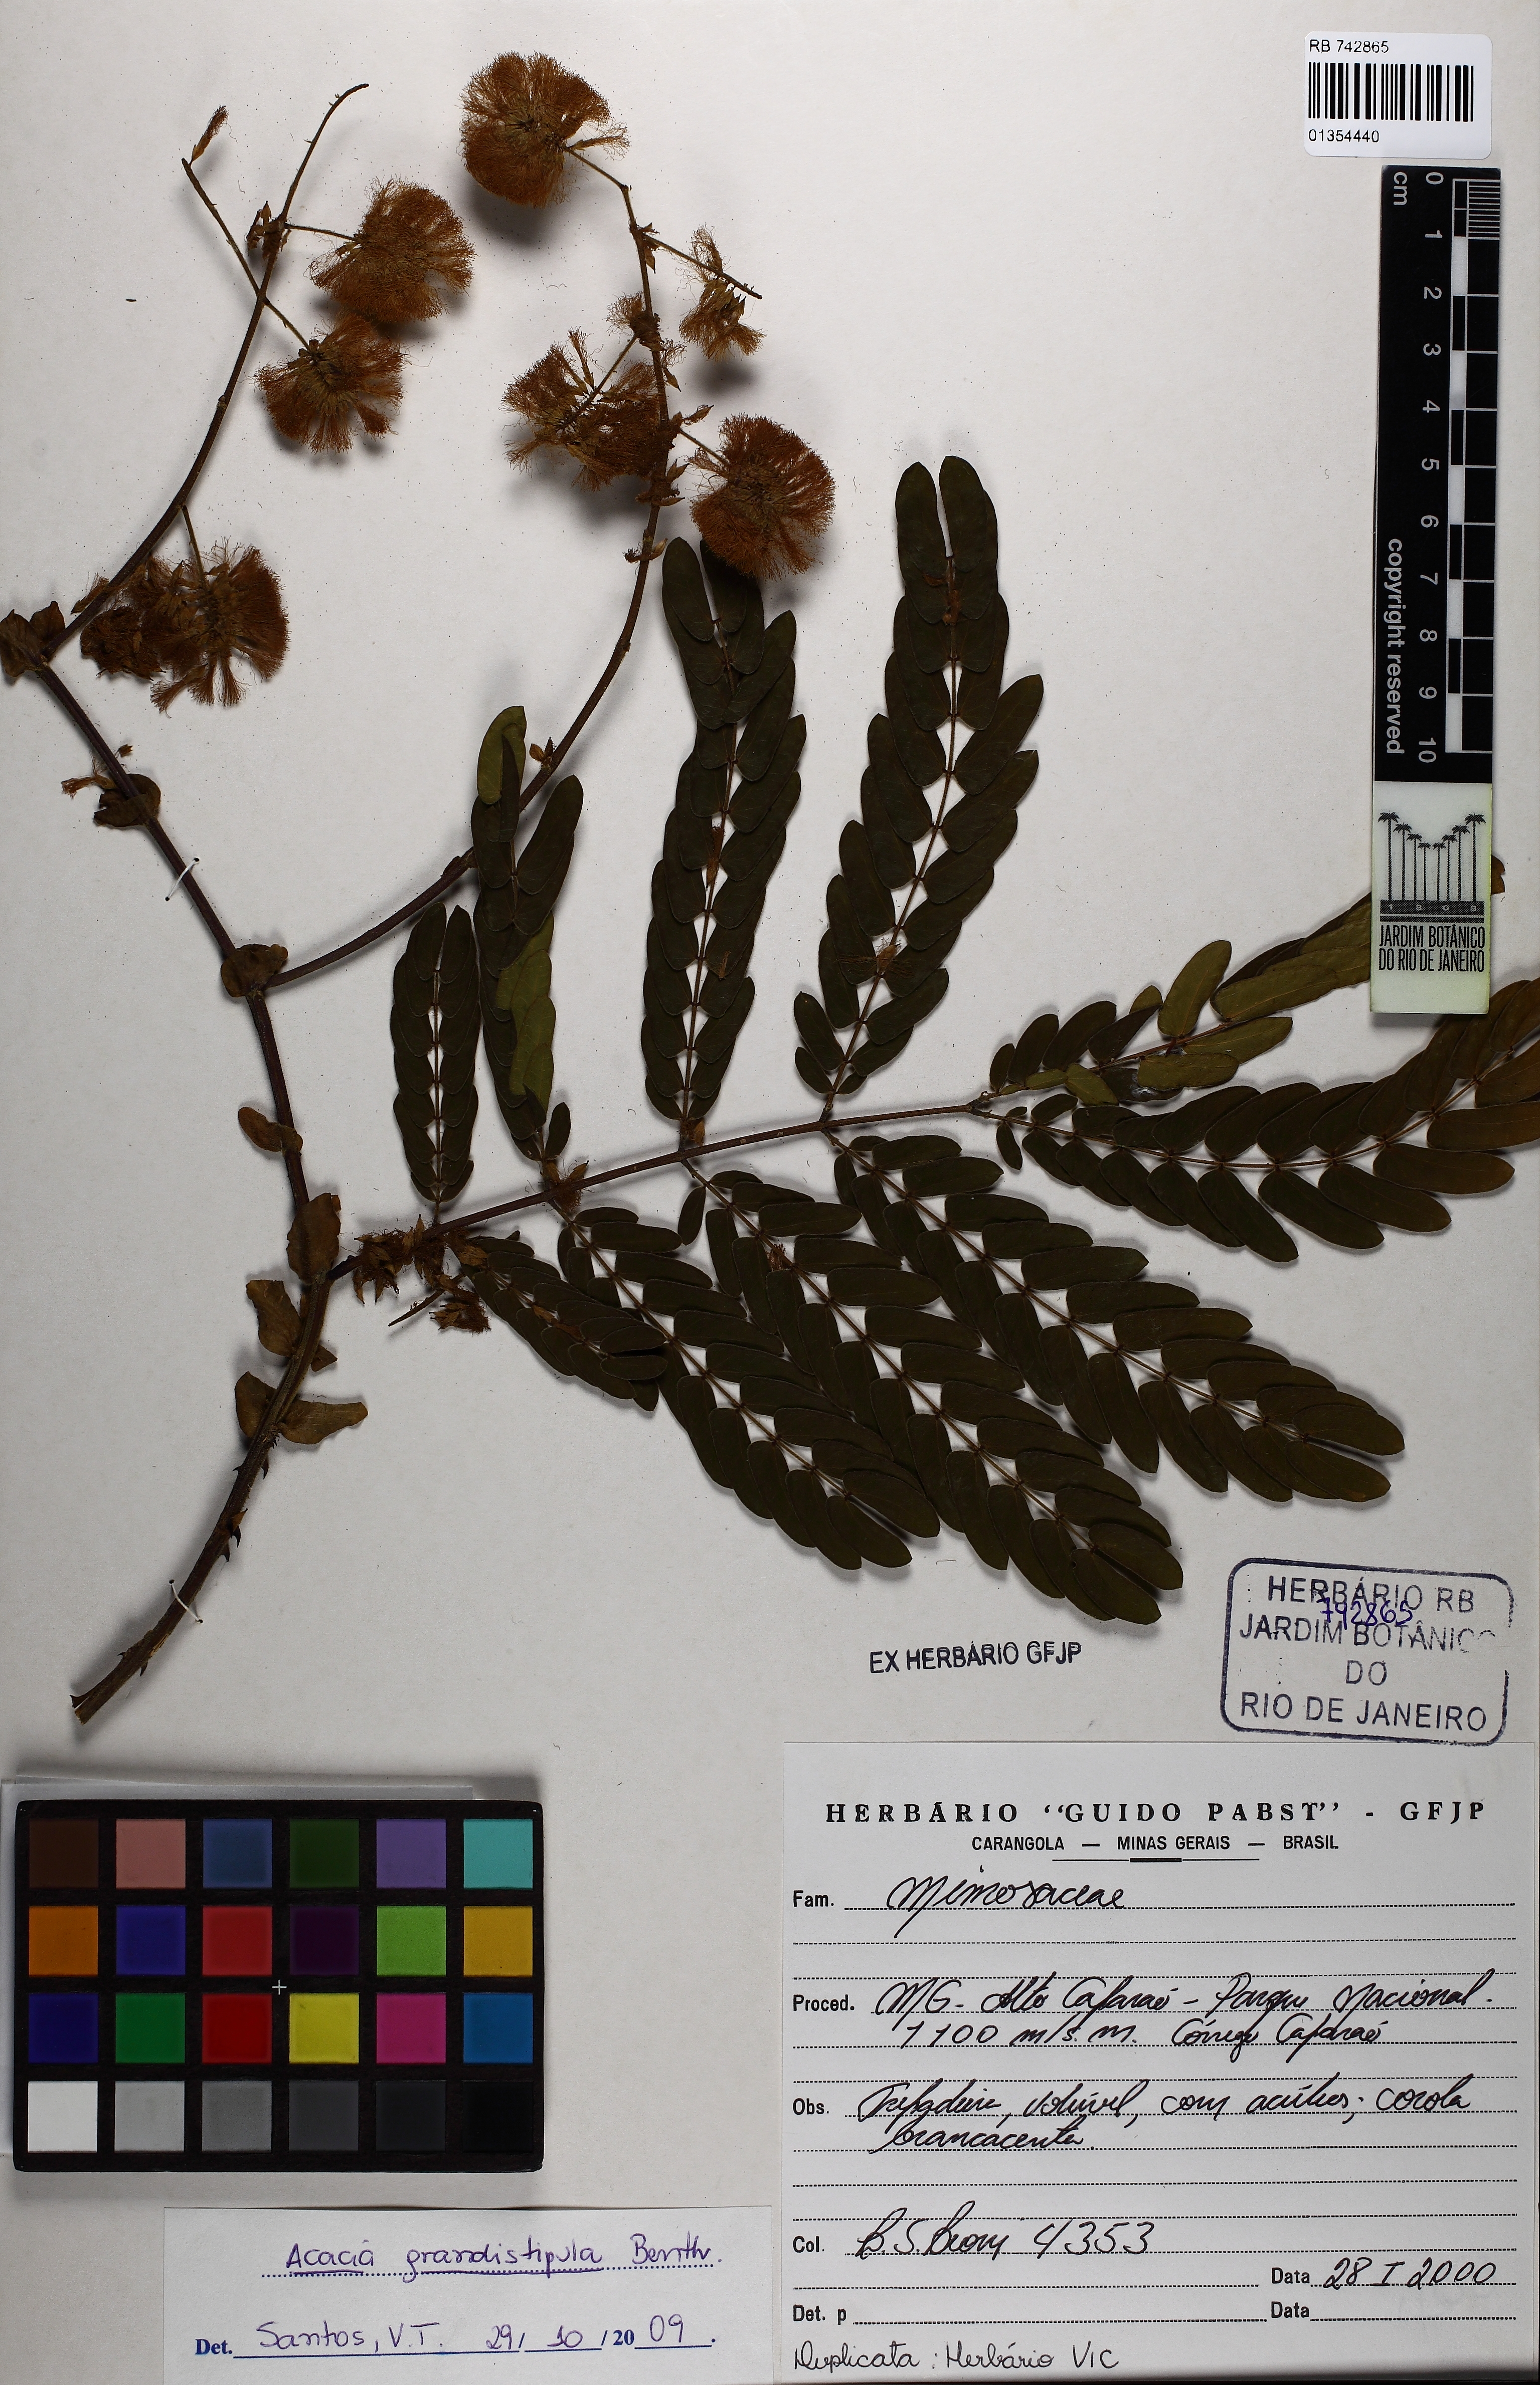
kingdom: Plantae
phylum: Tracheophyta
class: Magnoliopsida
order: Fabales
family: Fabaceae
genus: Senegalia
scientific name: Senegalia grandistipula
